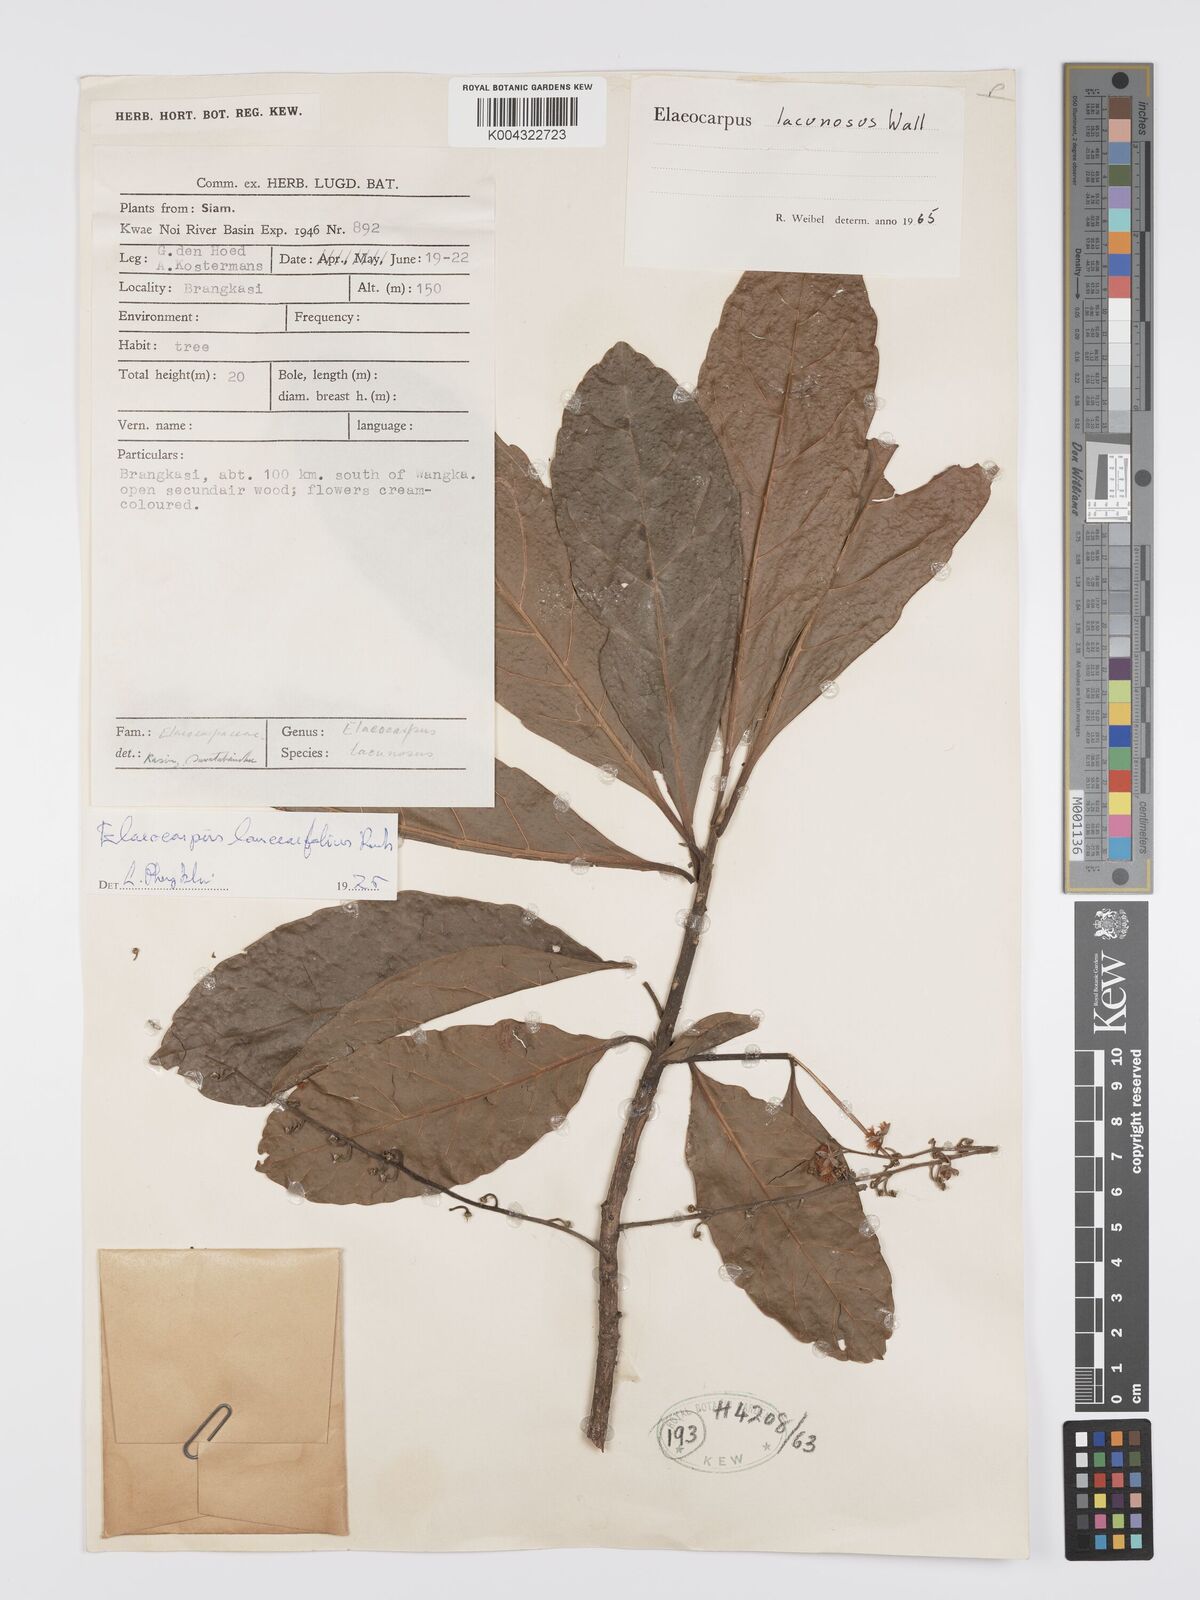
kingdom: Plantae
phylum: Tracheophyta
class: Magnoliopsida
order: Oxalidales
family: Elaeocarpaceae
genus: Elaeocarpus
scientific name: Elaeocarpus lanceifolius
